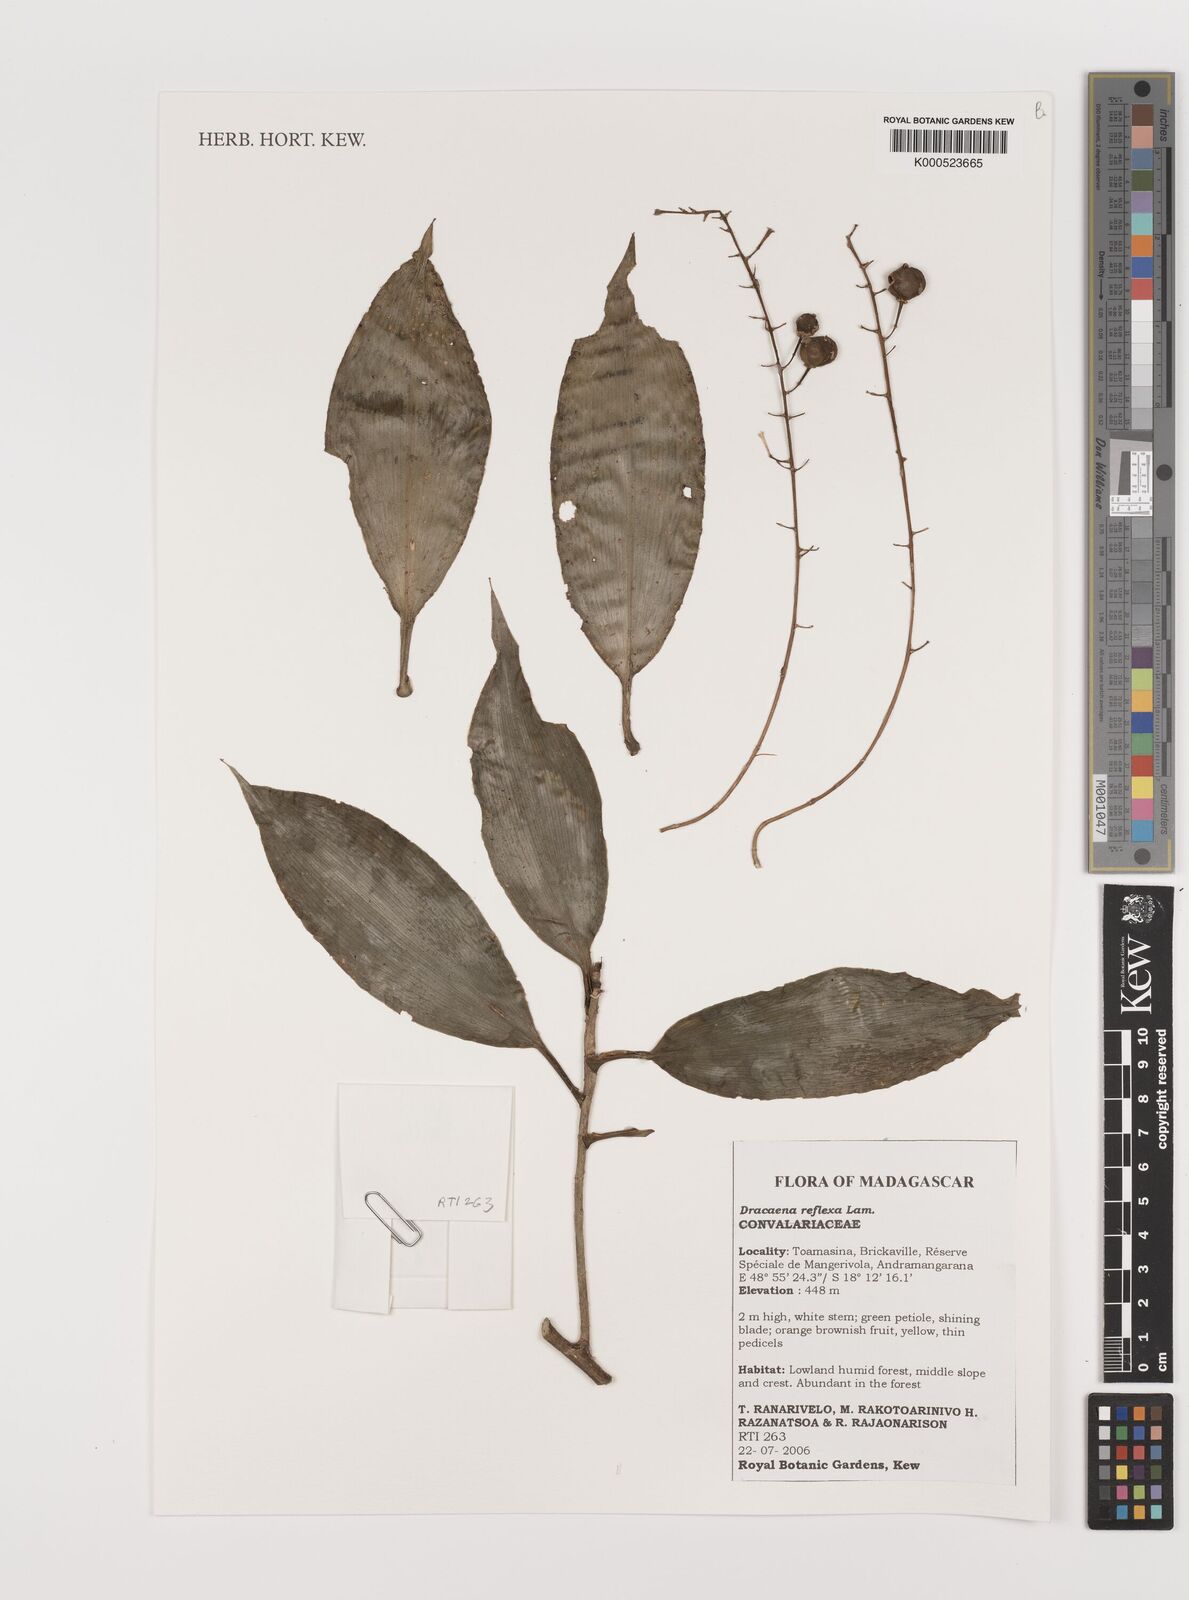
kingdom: Plantae
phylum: Tracheophyta
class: Liliopsida
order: Asparagales
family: Asparagaceae
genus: Dracaena
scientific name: Dracaena reflexa
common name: Song-of-india
